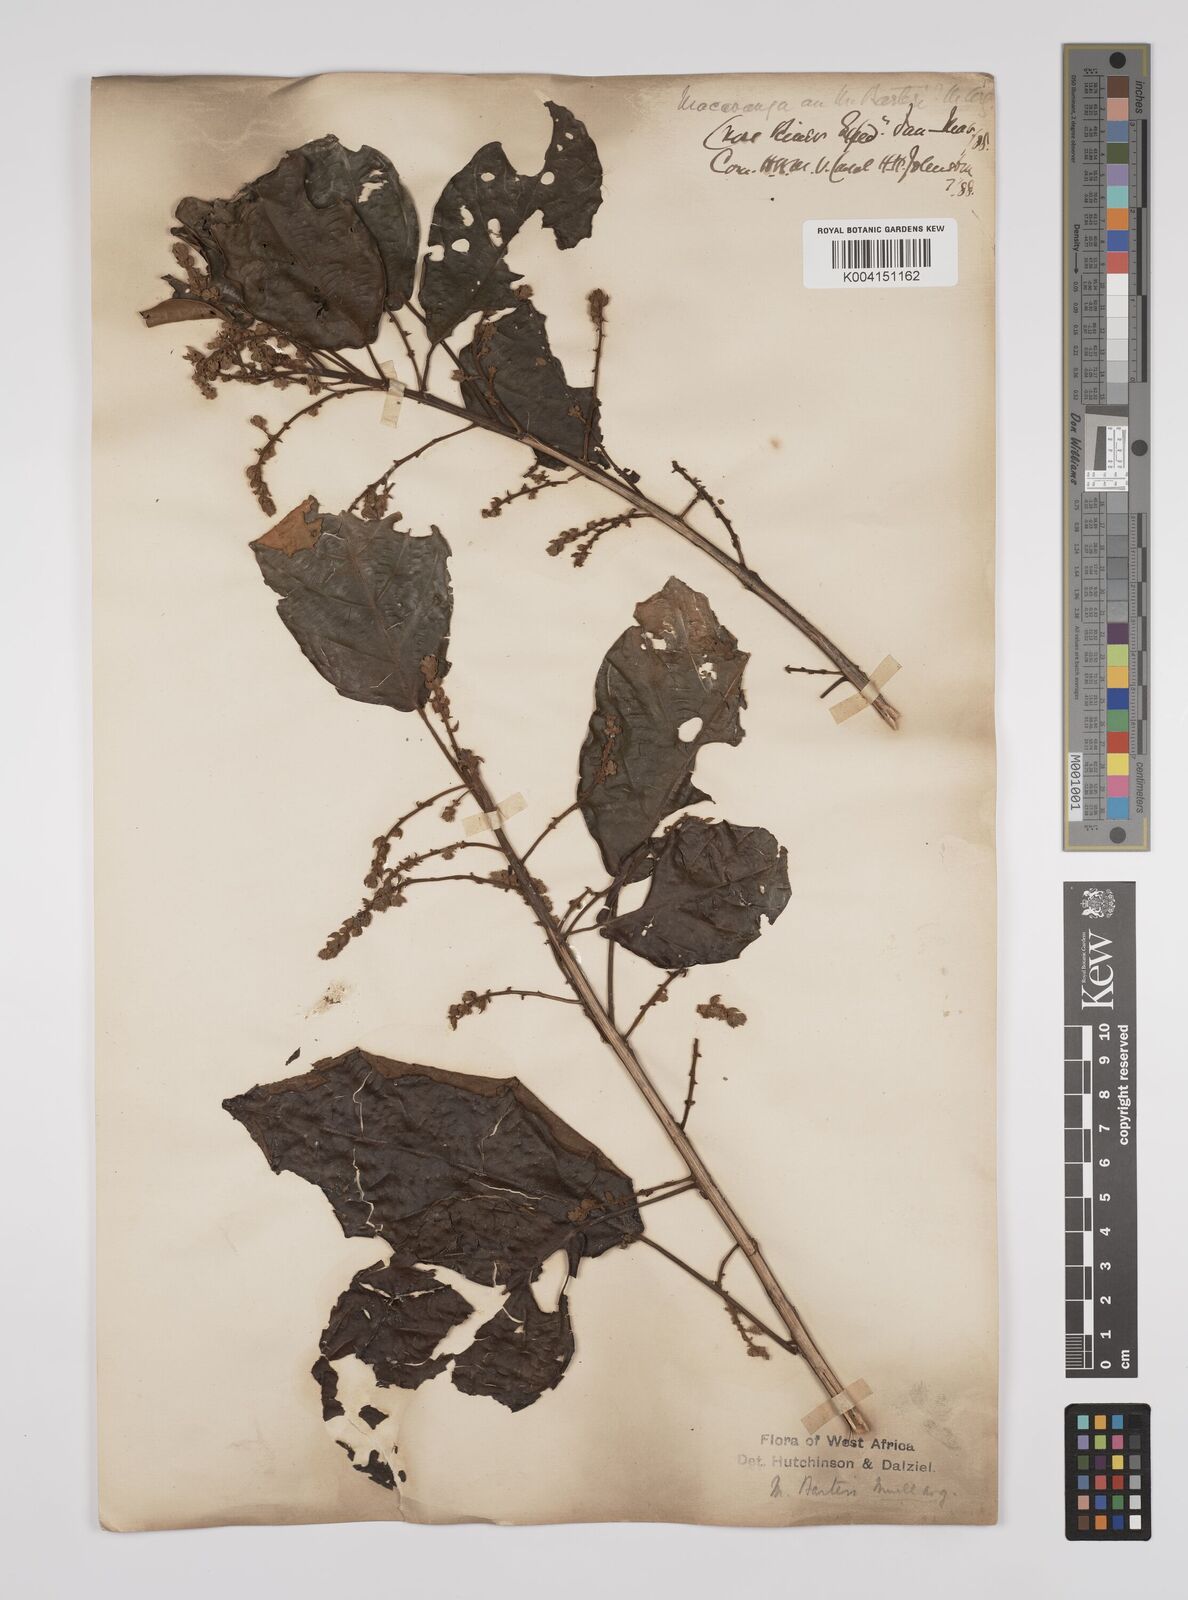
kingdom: Plantae
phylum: Tracheophyta
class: Magnoliopsida
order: Malpighiales
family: Euphorbiaceae
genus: Macaranga
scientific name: Macaranga barteri
